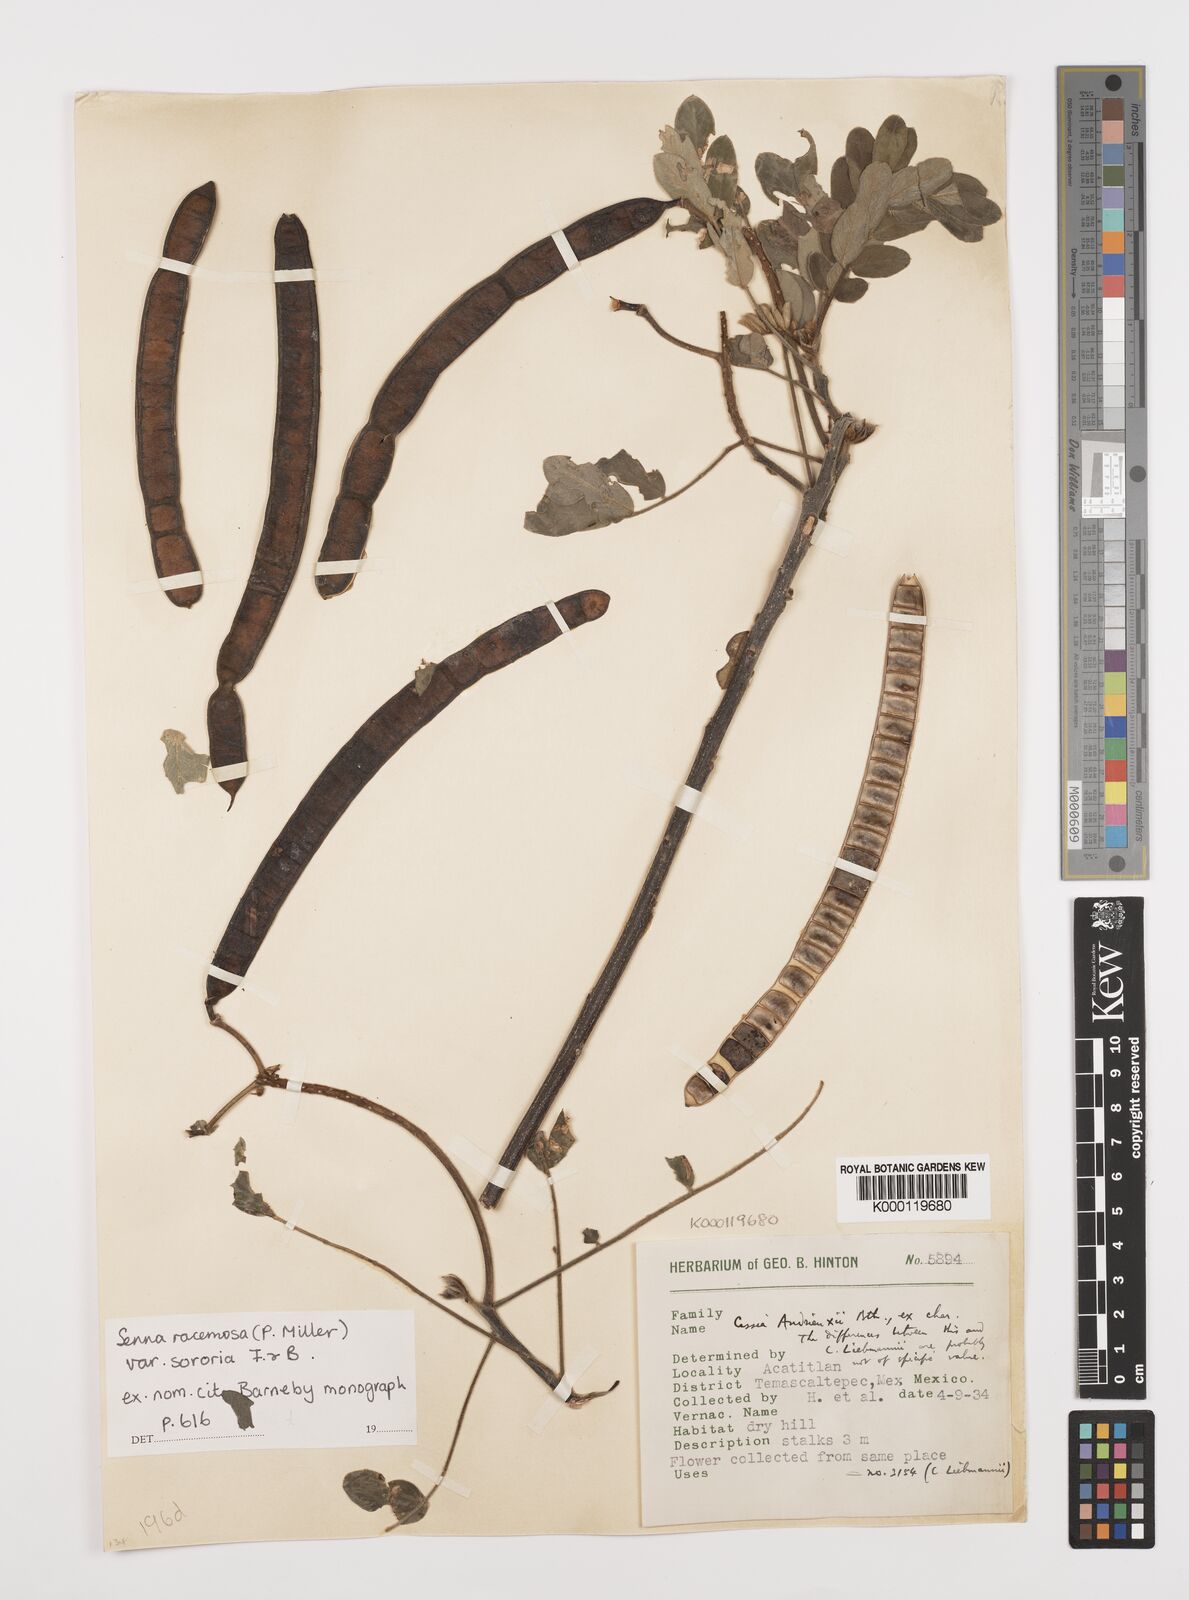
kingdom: Plantae
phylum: Tracheophyta
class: Magnoliopsida
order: Fabales
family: Fabaceae
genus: Senna
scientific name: Senna racemosa
